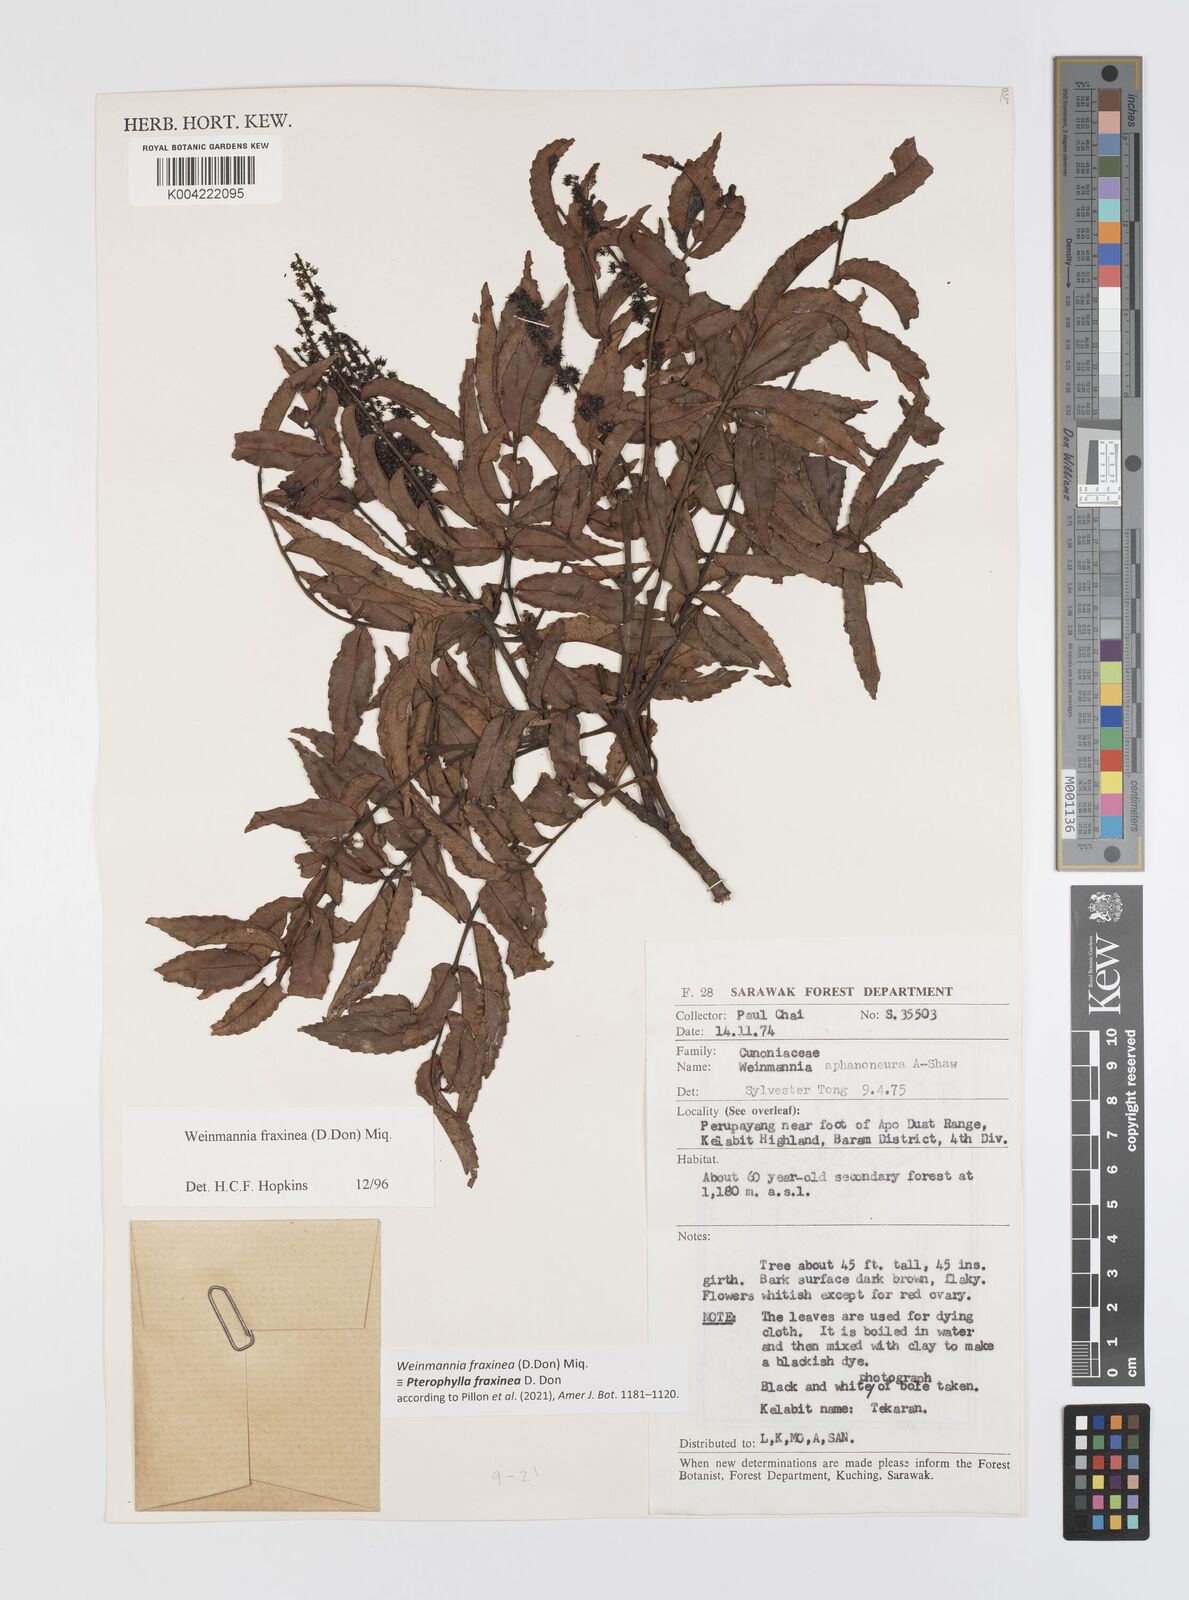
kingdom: Plantae
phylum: Tracheophyta
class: Magnoliopsida
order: Oxalidales
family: Cunoniaceae
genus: Pterophylla
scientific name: Pterophylla fraxinea
